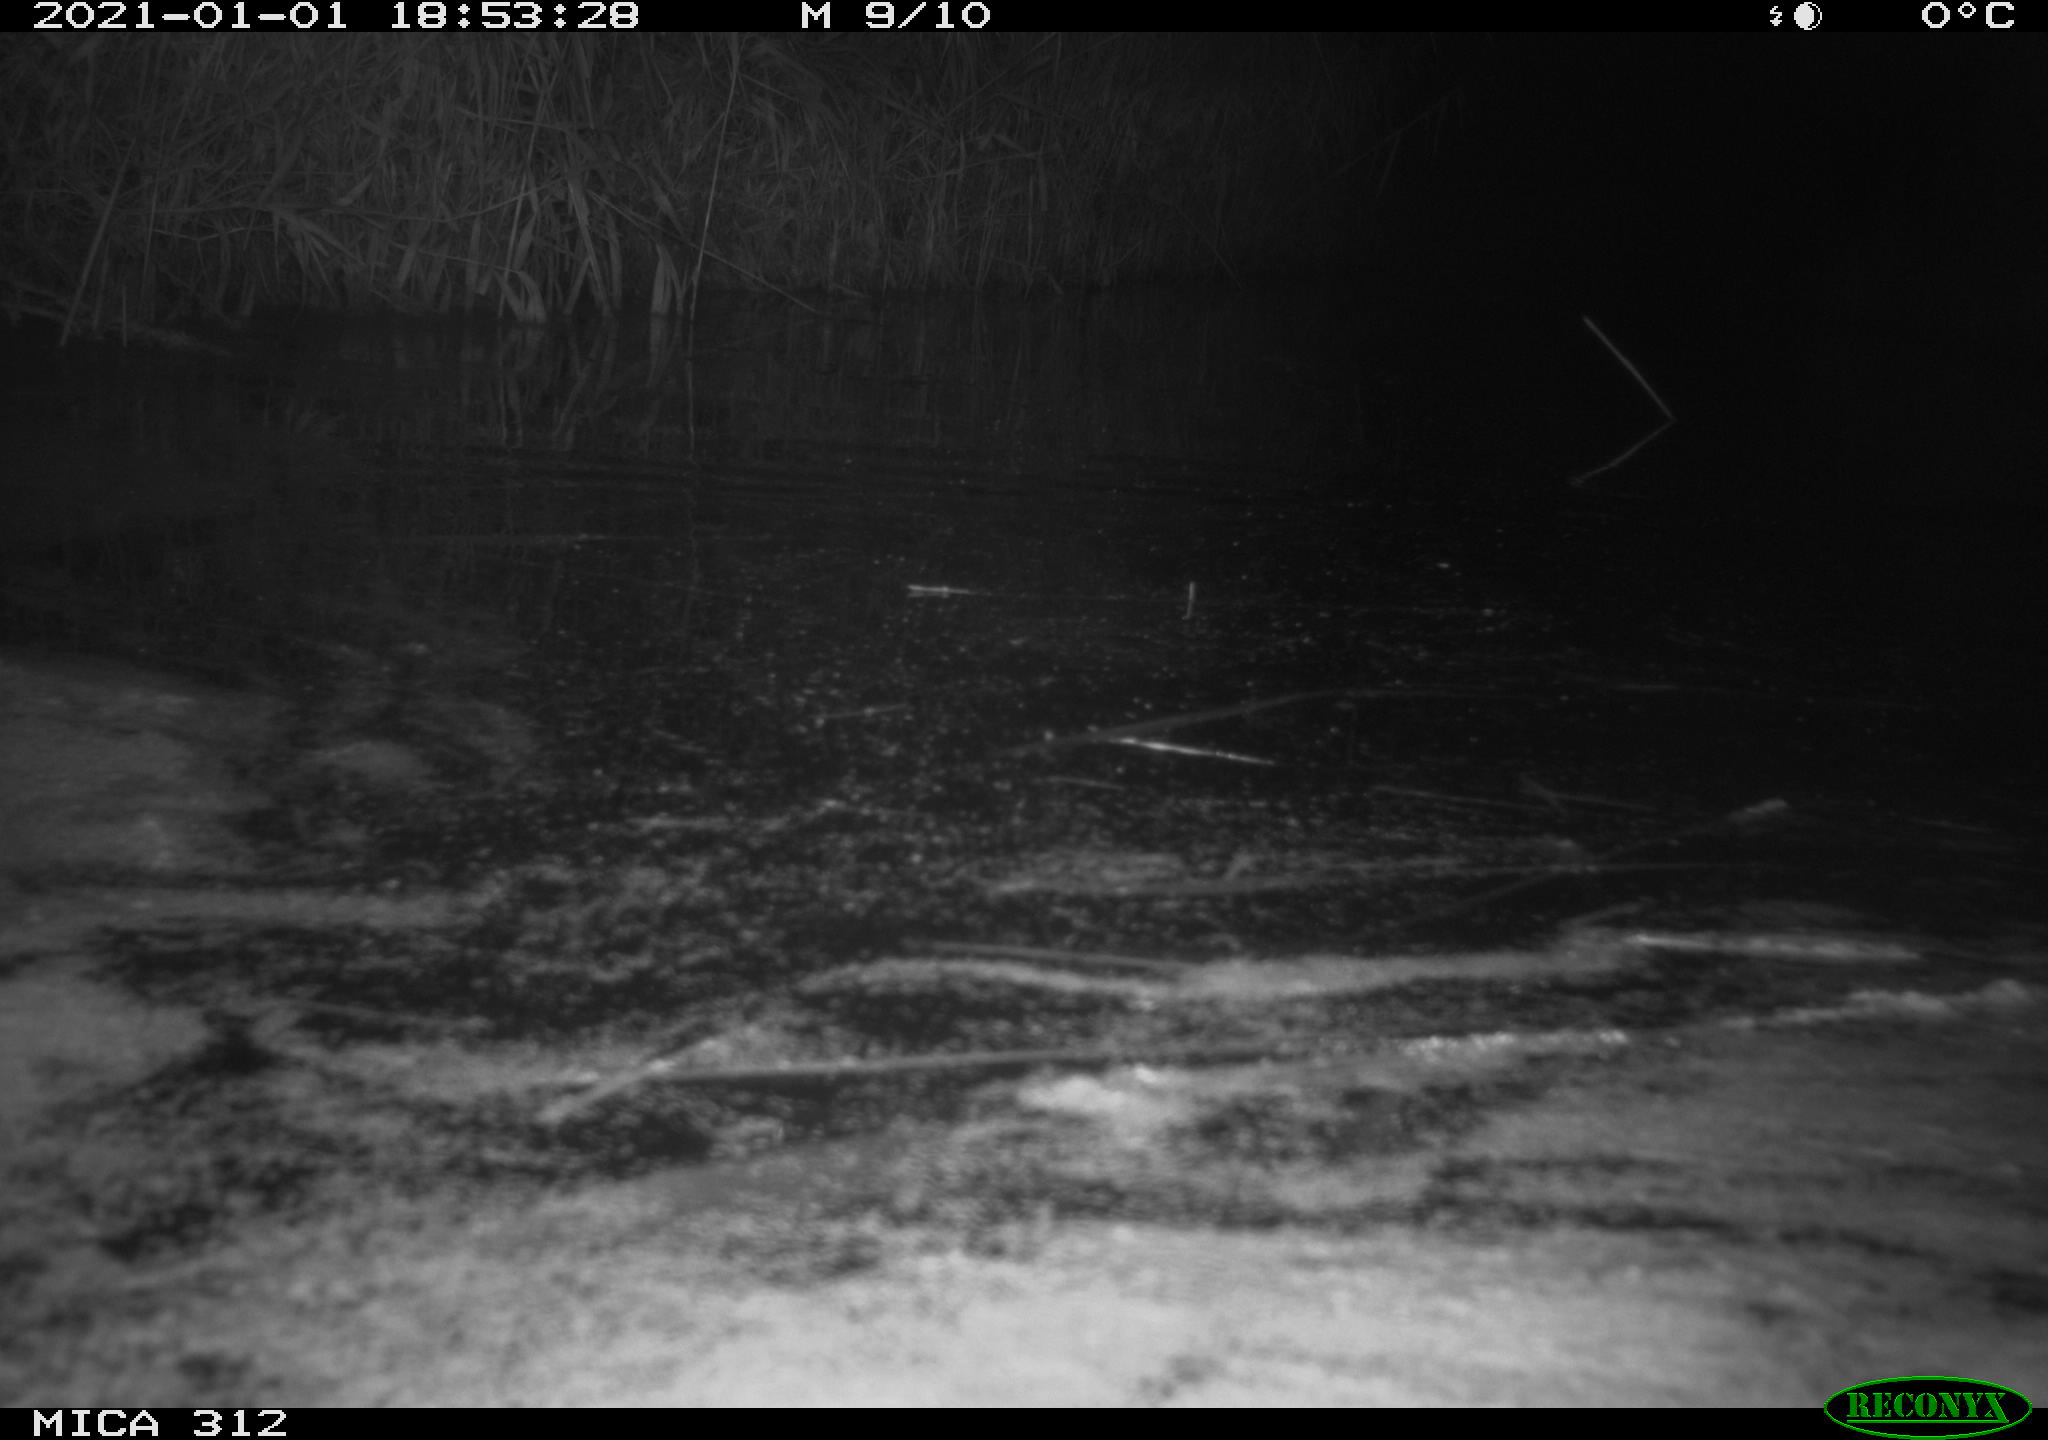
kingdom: Animalia
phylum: Chordata
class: Mammalia
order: Rodentia
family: Muridae
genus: Rattus
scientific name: Rattus norvegicus
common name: Brown rat
